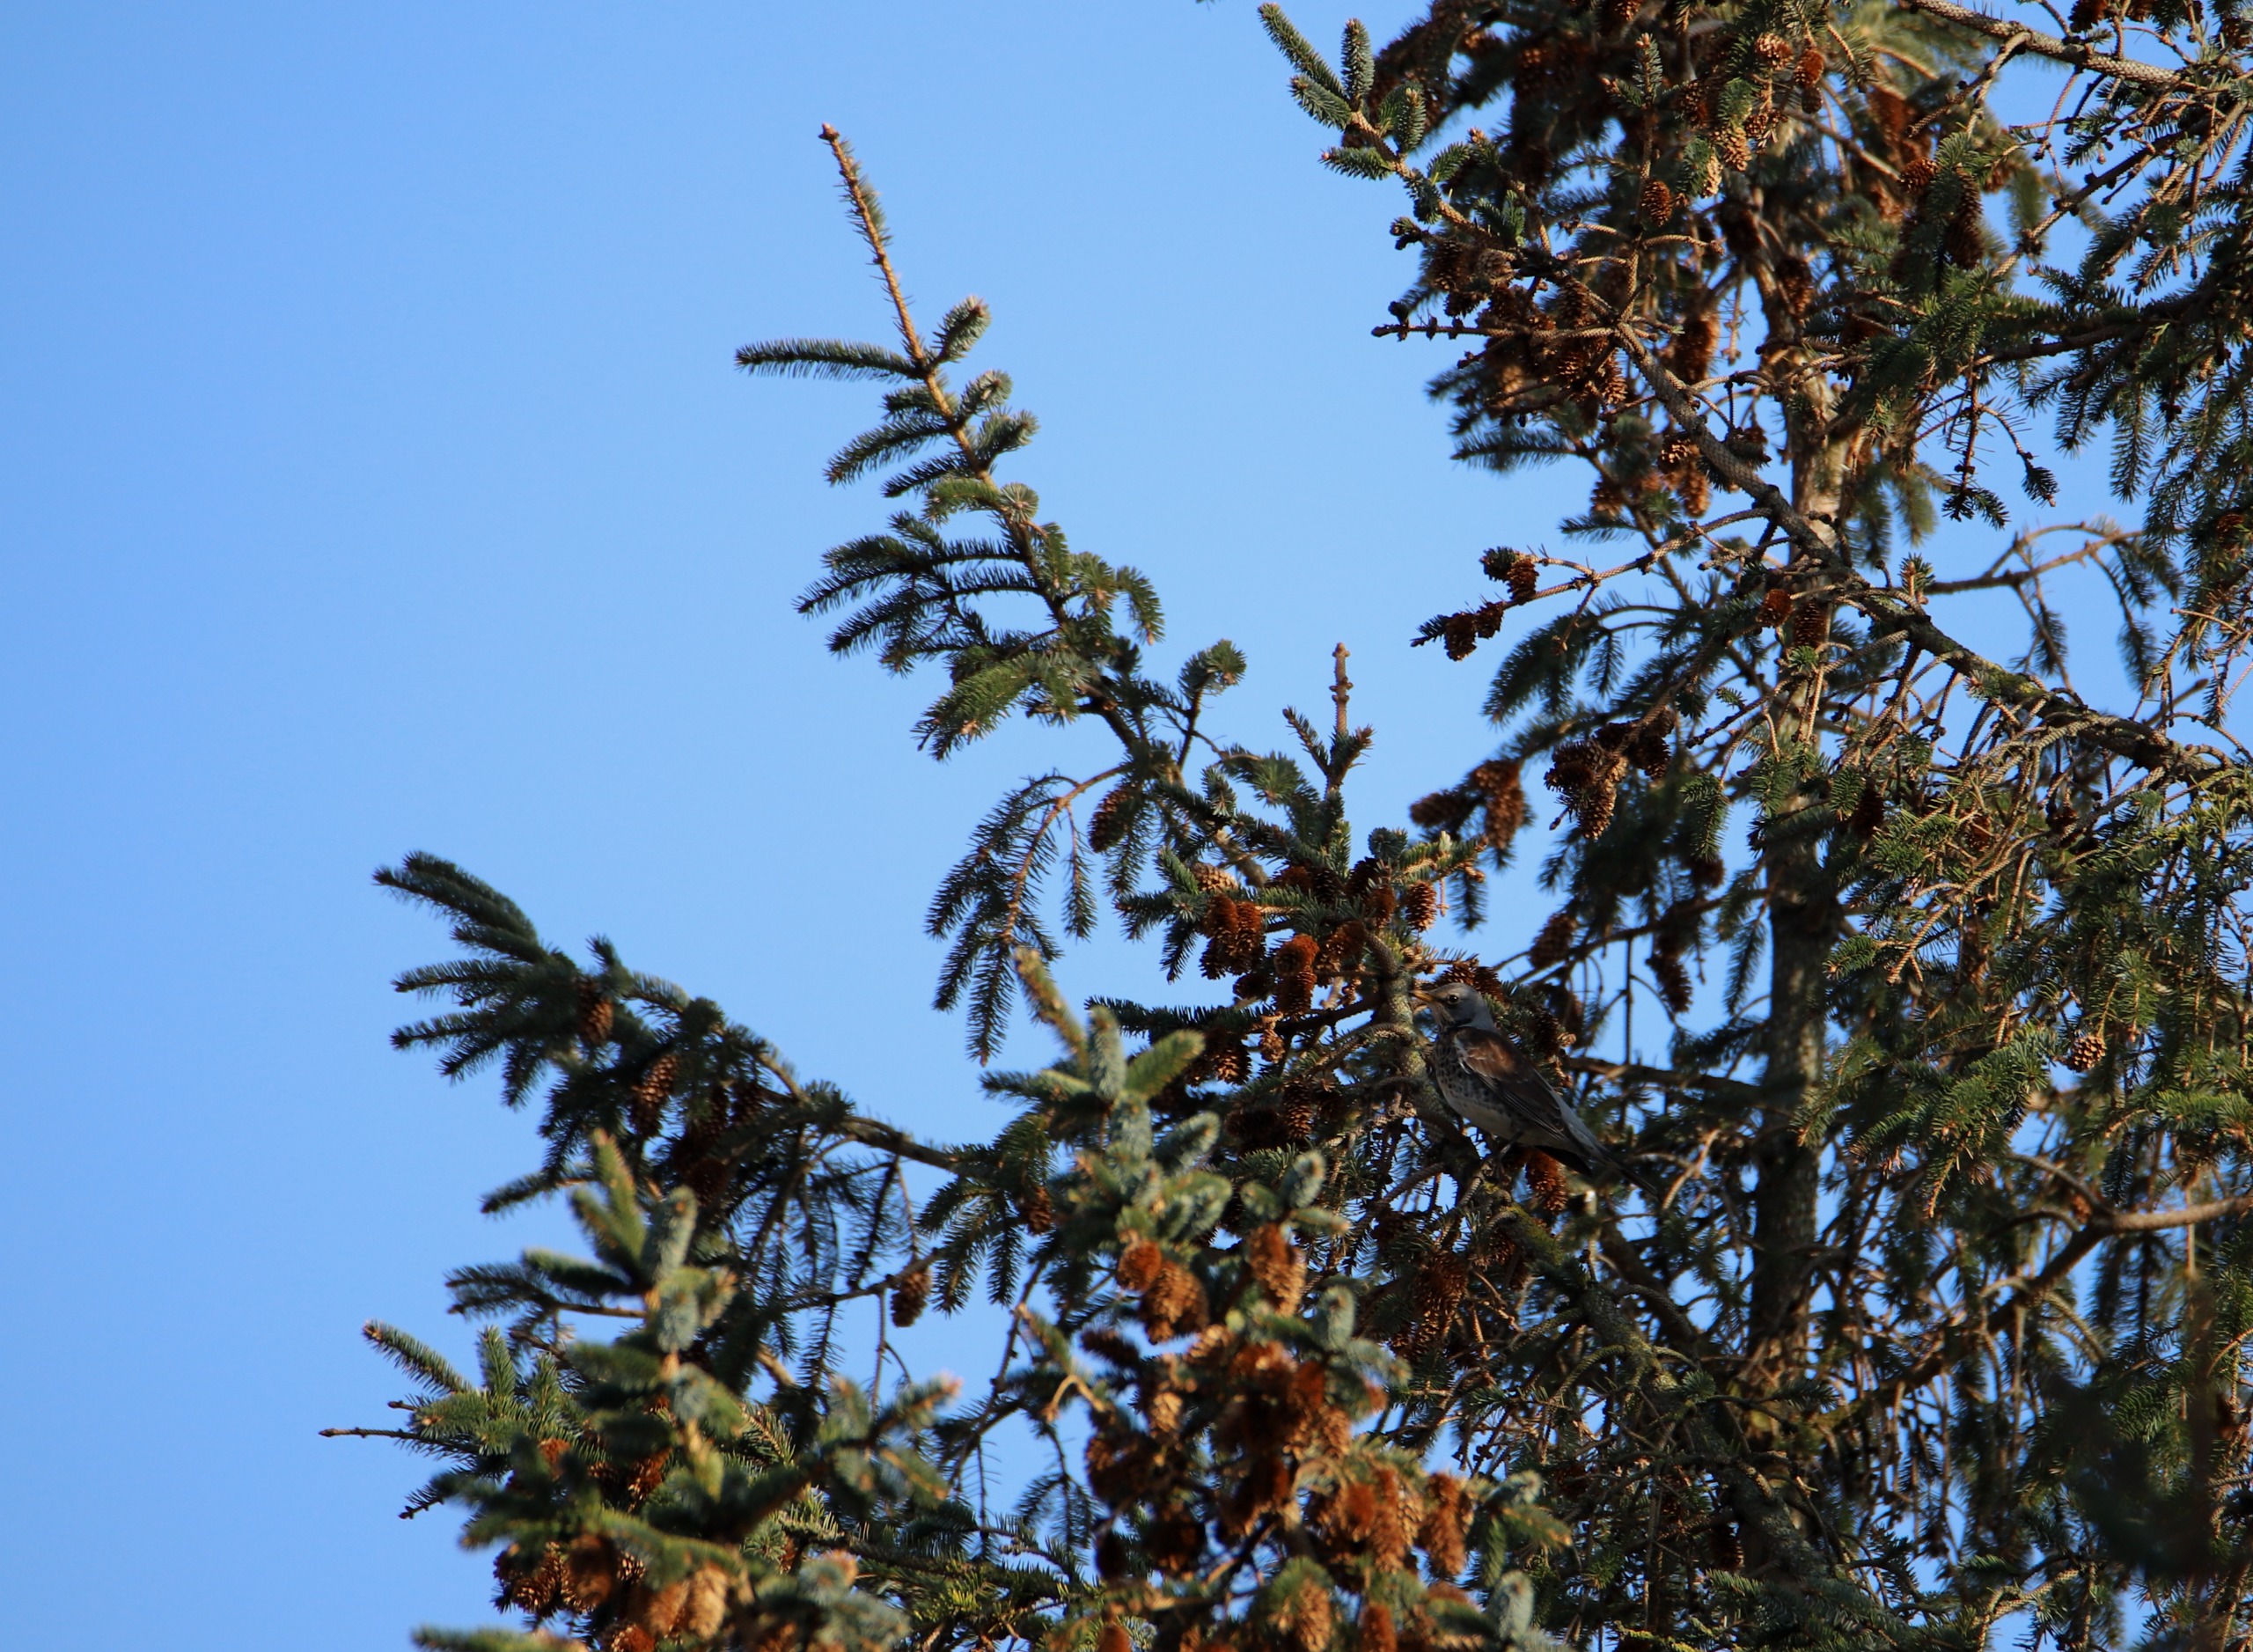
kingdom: Animalia
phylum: Chordata
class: Aves
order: Passeriformes
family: Turdidae
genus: Turdus
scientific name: Turdus pilaris
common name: Sjagger
